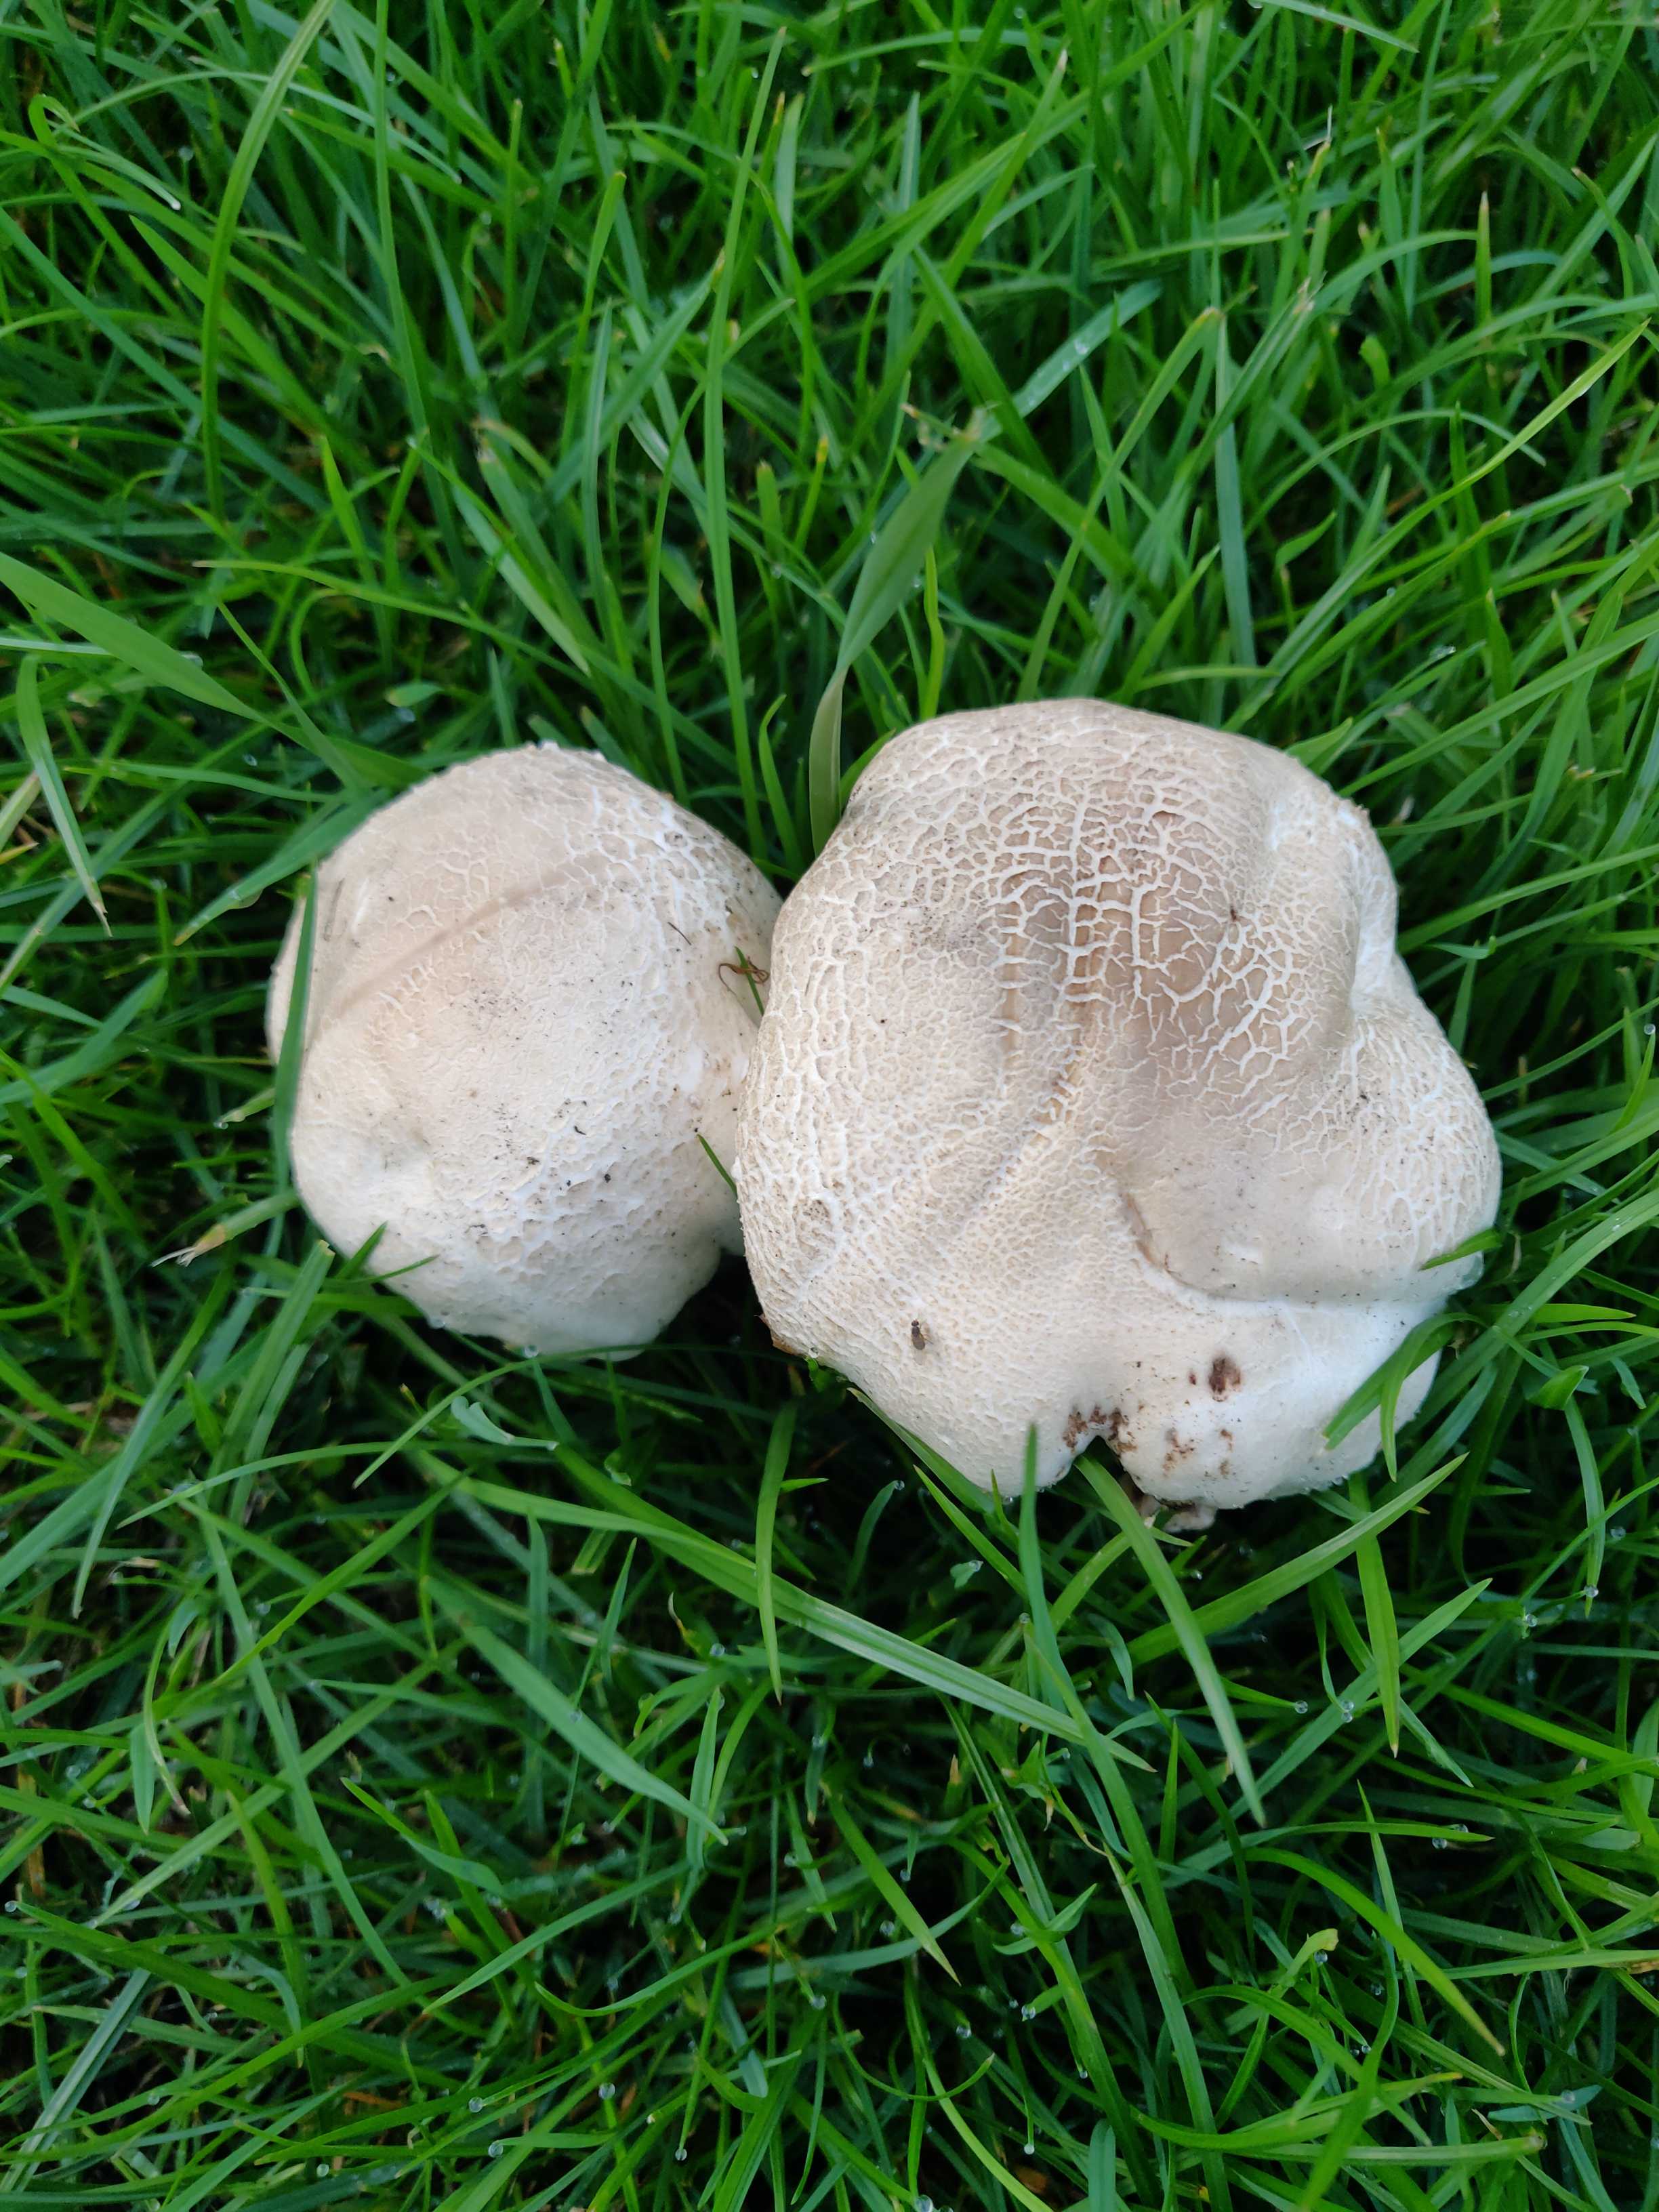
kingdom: Fungi
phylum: Basidiomycota
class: Agaricomycetes
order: Agaricales
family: Agaricaceae
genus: Agaricus
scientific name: Agaricus
